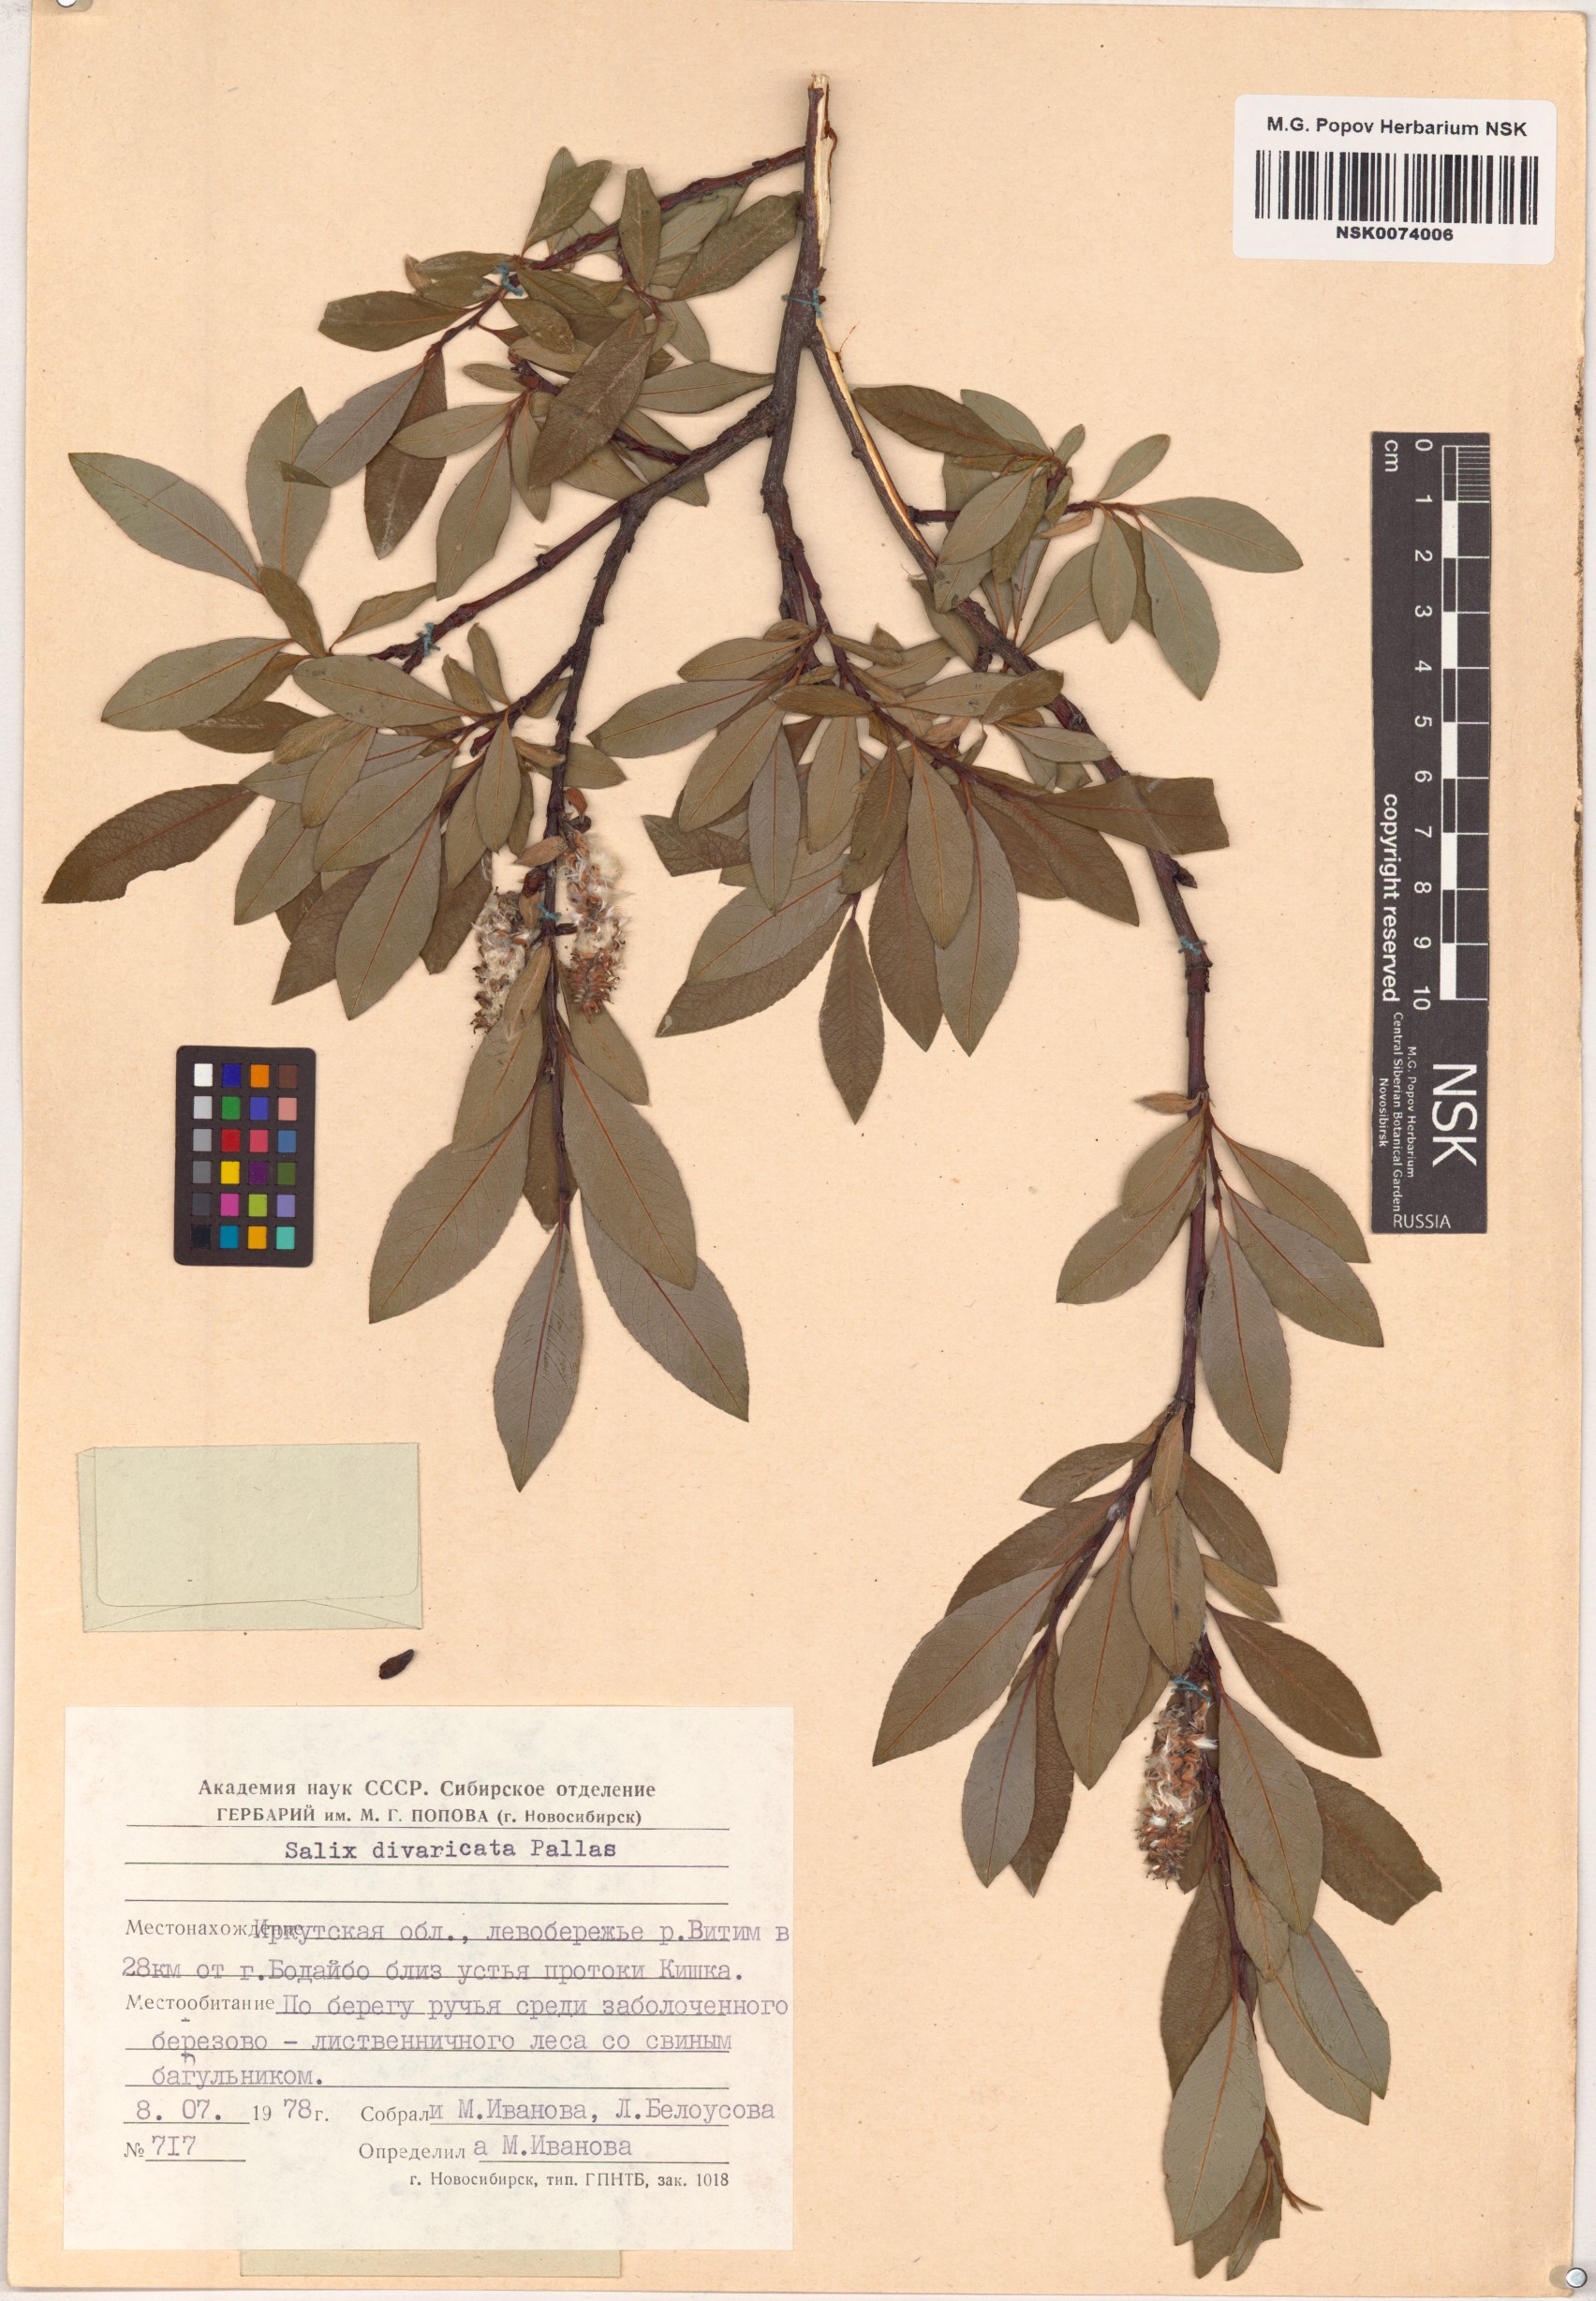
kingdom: Plantae
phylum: Tracheophyta
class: Magnoliopsida
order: Malpighiales
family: Salicaceae
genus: Salix
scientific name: Salix divaricata
